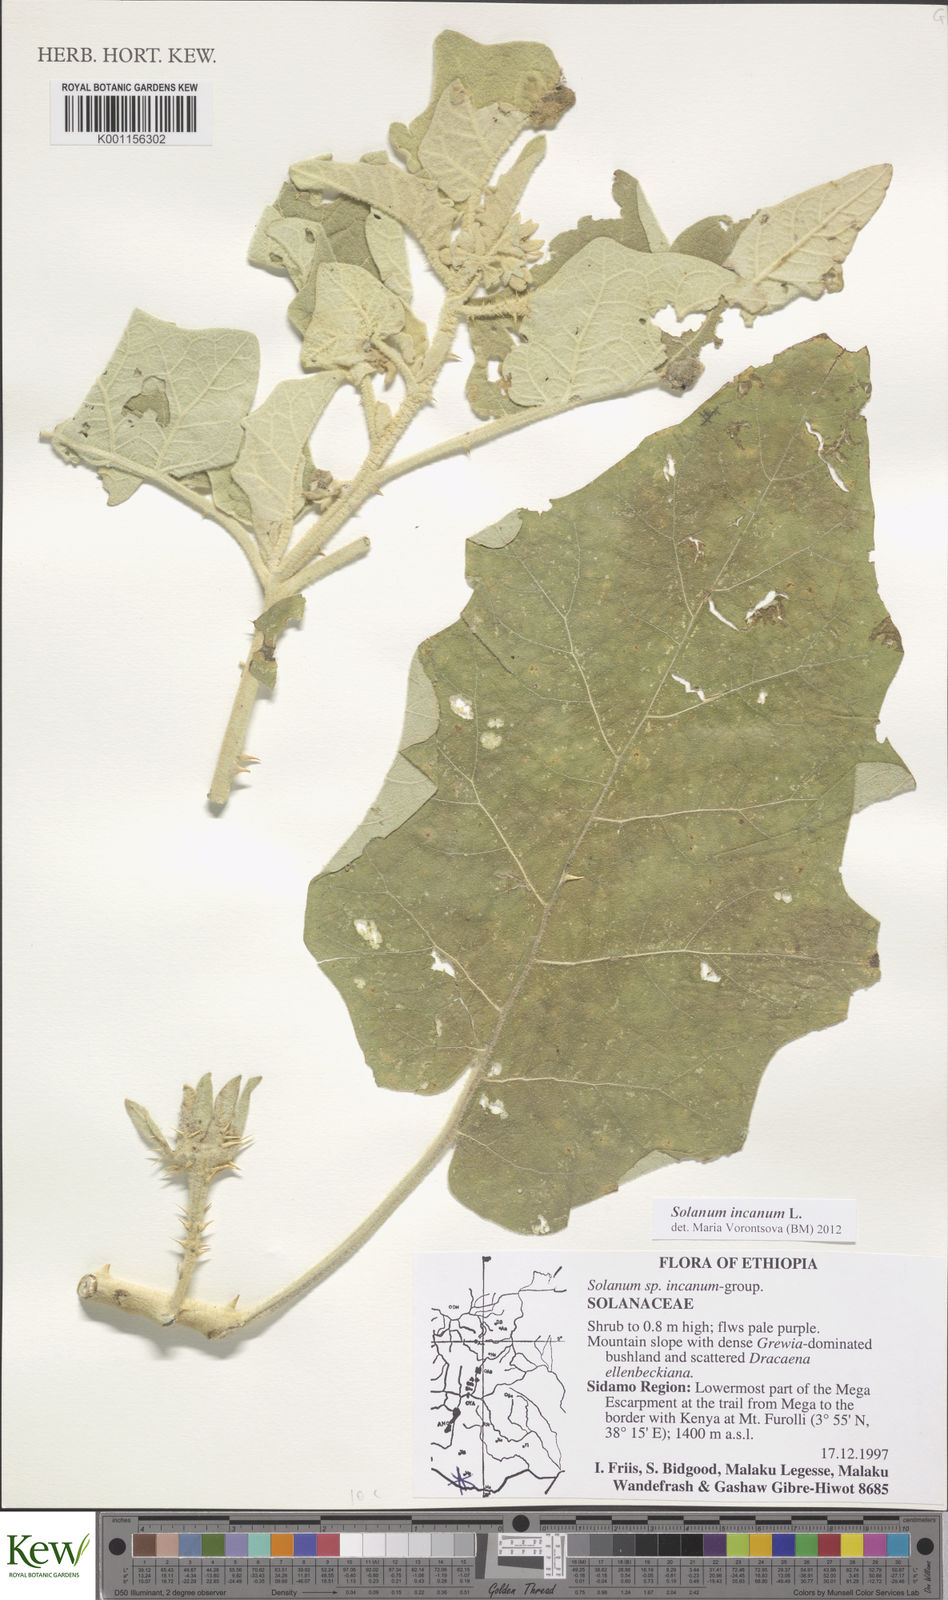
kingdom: Plantae
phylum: Tracheophyta
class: Magnoliopsida
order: Solanales
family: Solanaceae
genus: Solanum
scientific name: Solanum incanum
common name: Bitter apple
